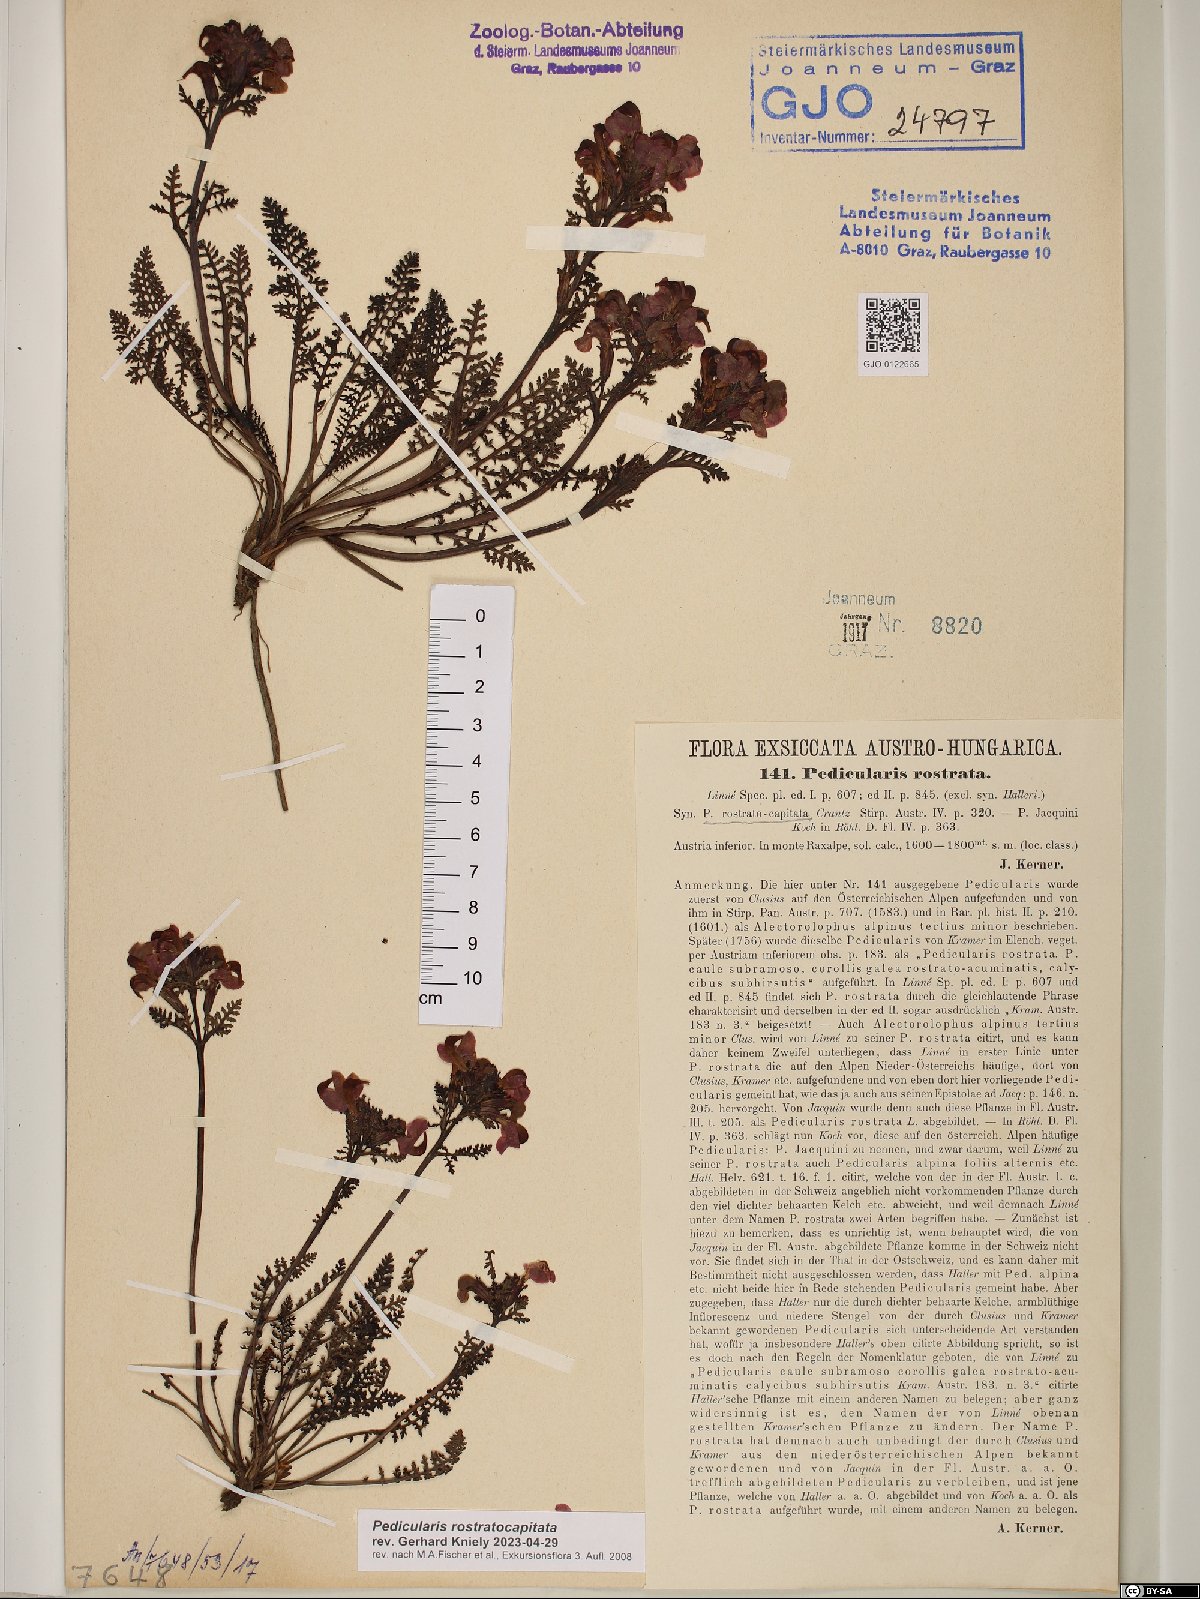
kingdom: Plantae
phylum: Tracheophyta
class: Magnoliopsida
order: Lamiales
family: Orobanchaceae
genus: Pedicularis
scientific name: Pedicularis rostratocapitata
